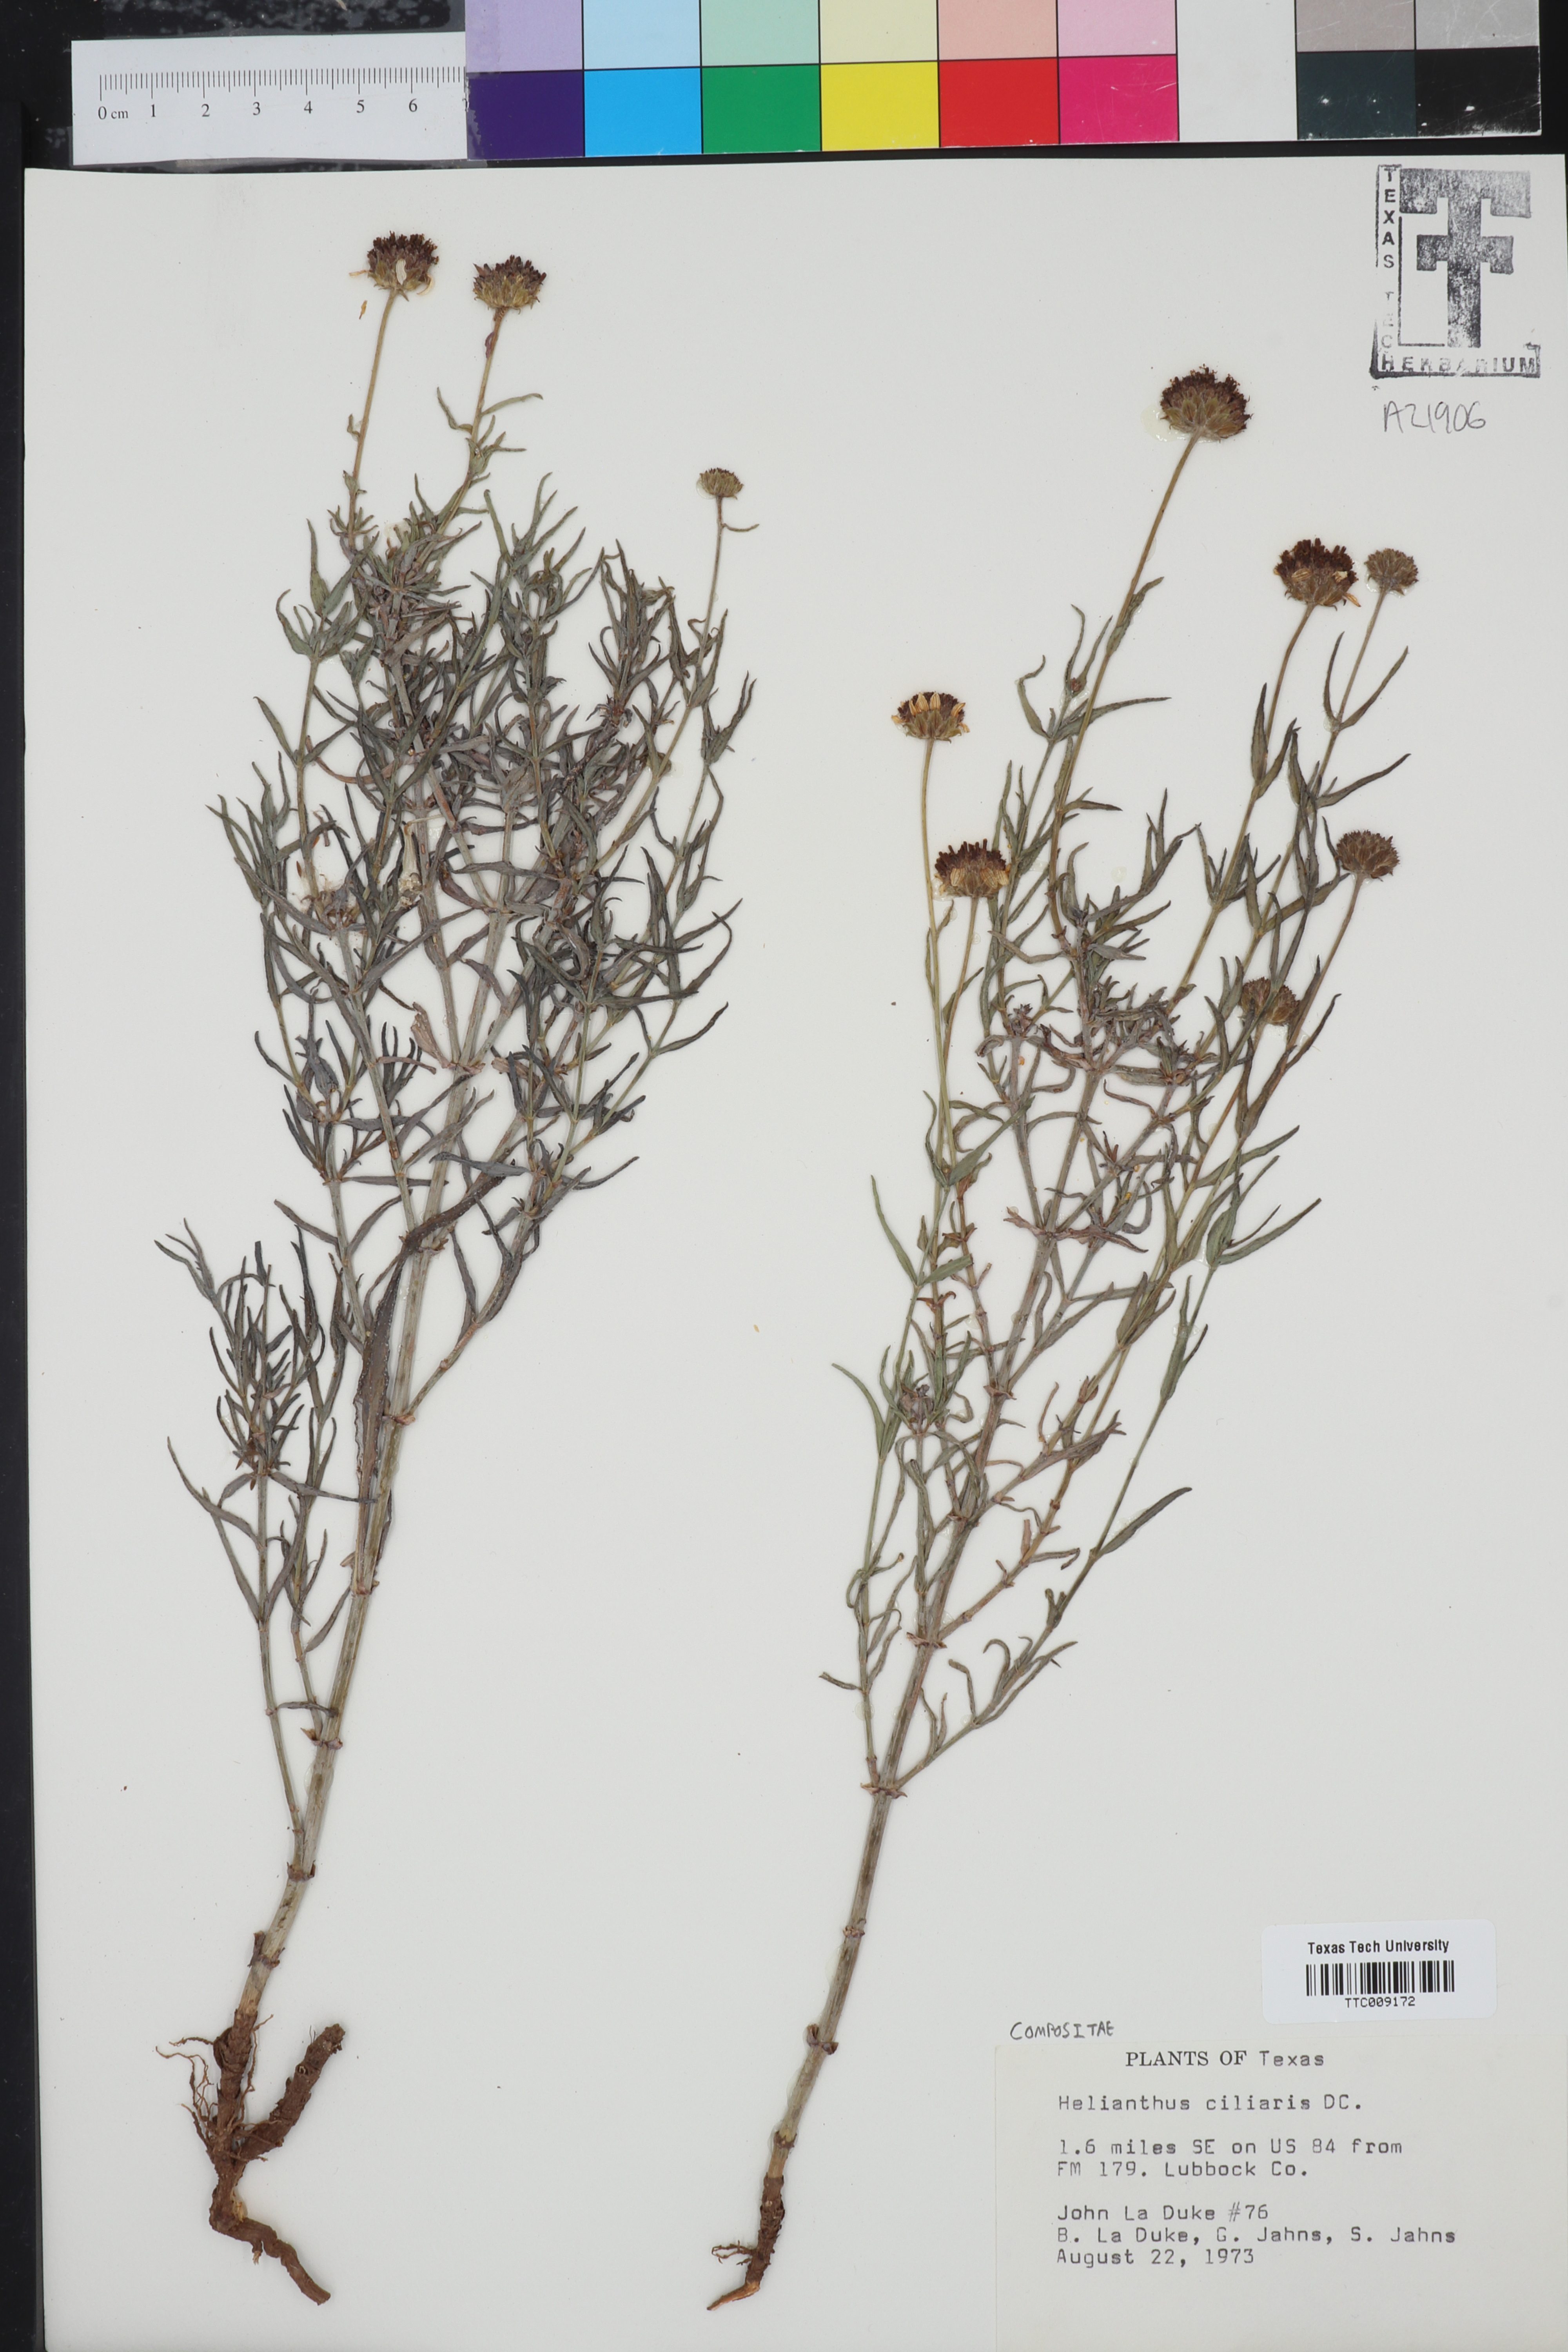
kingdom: Plantae
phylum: Tracheophyta
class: Magnoliopsida
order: Asterales
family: Asteraceae
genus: Helianthus
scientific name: Helianthus ciliaris
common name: Texas blueweed
